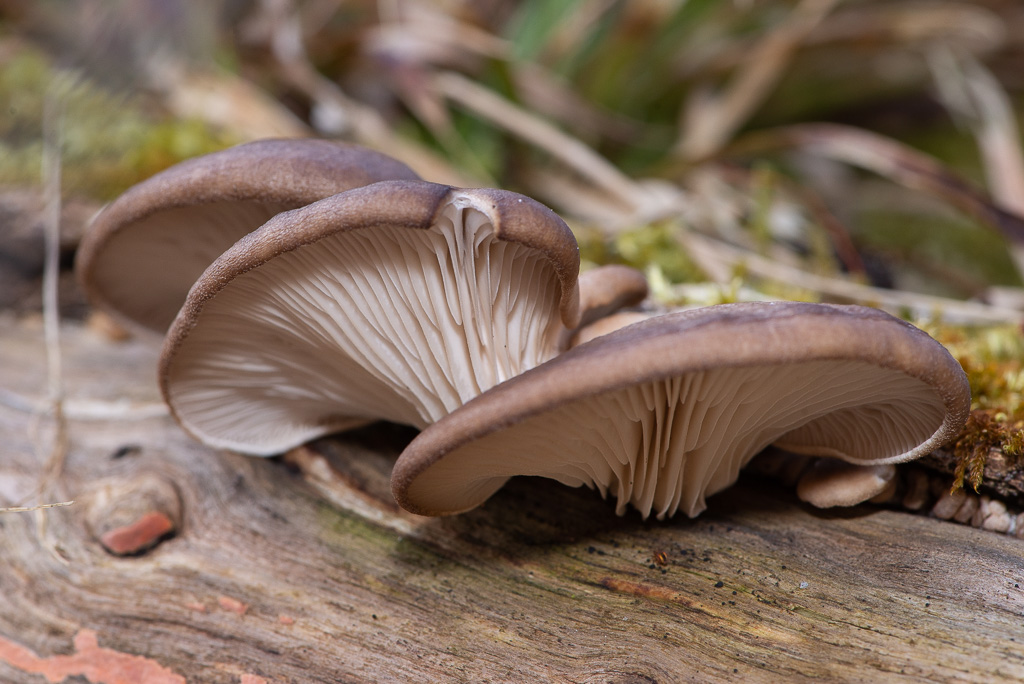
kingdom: Fungi
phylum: Basidiomycota
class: Agaricomycetes
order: Agaricales
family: Pleurotaceae
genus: Pleurotus
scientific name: Pleurotus ostreatus
